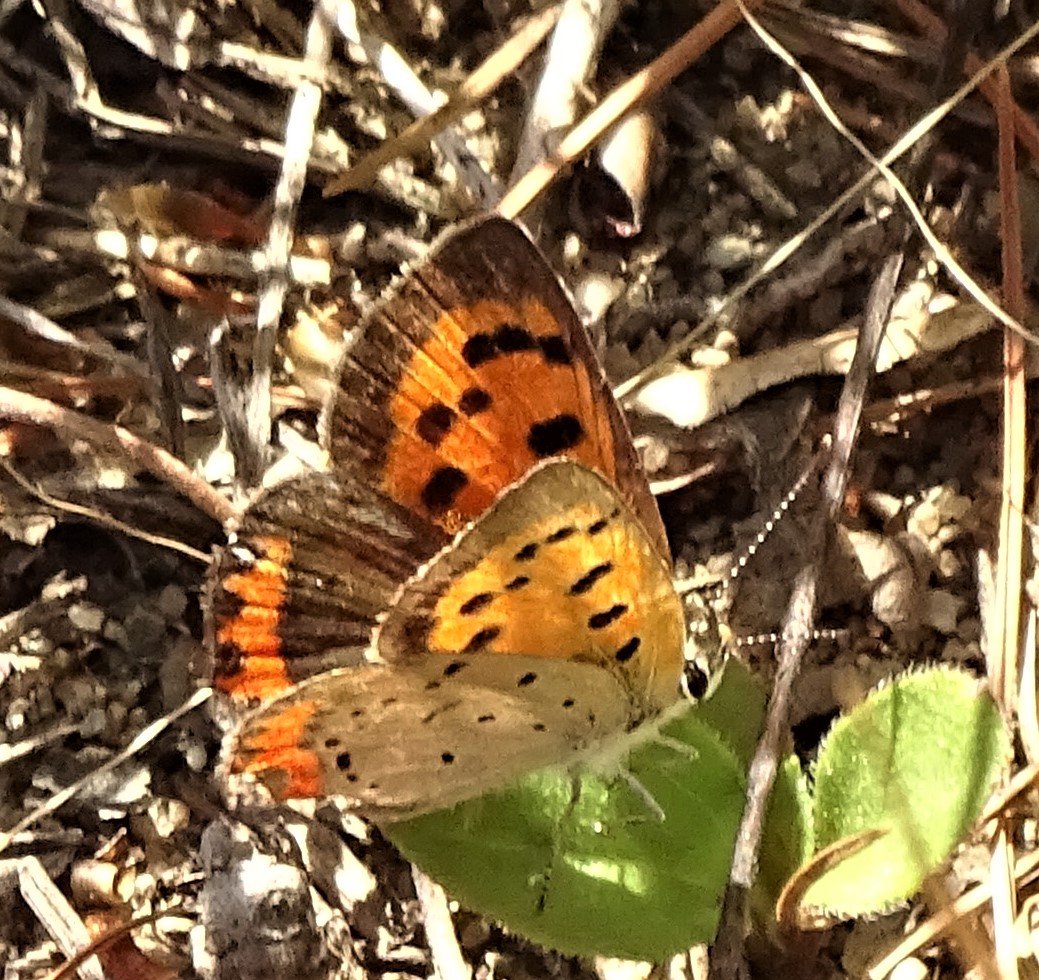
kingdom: Animalia
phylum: Arthropoda
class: Insecta
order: Lepidoptera
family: Lycaenidae
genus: Lycaena
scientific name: Lycaena phlaeas
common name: American Copper
